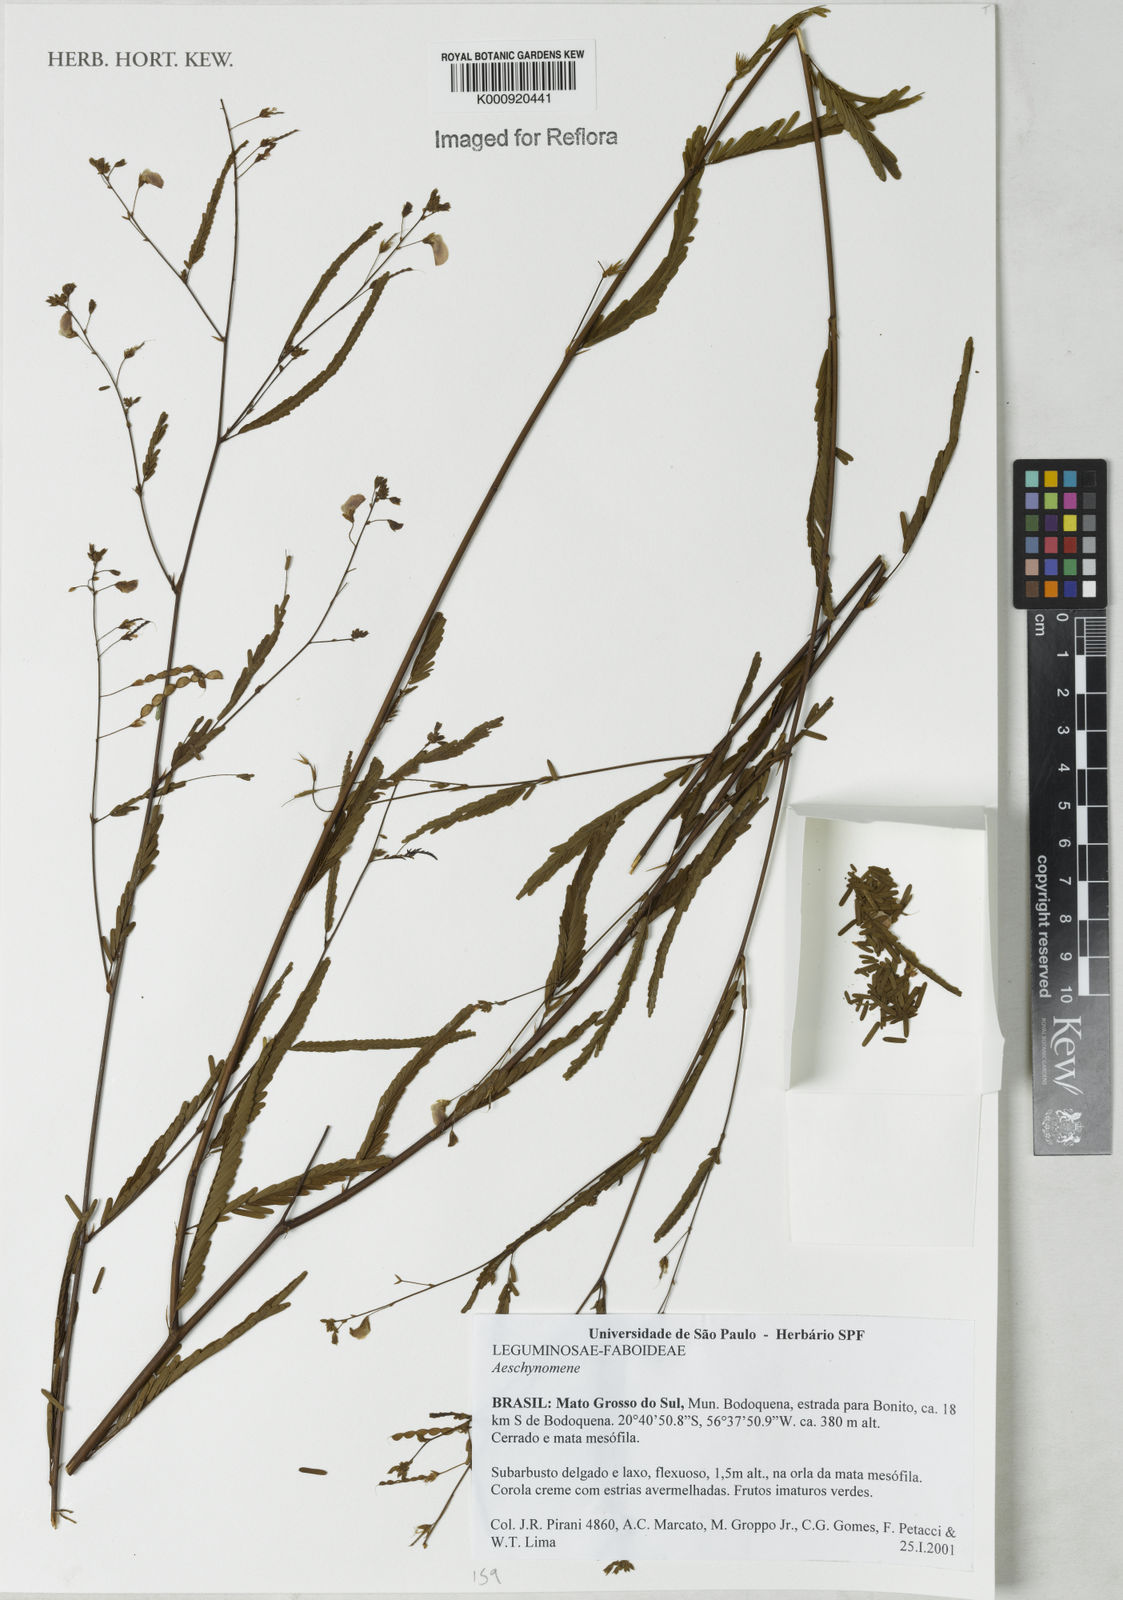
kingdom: Plantae
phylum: Tracheophyta
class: Magnoliopsida
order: Fabales
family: Fabaceae
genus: Aeschynomene
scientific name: Aeschynomene
